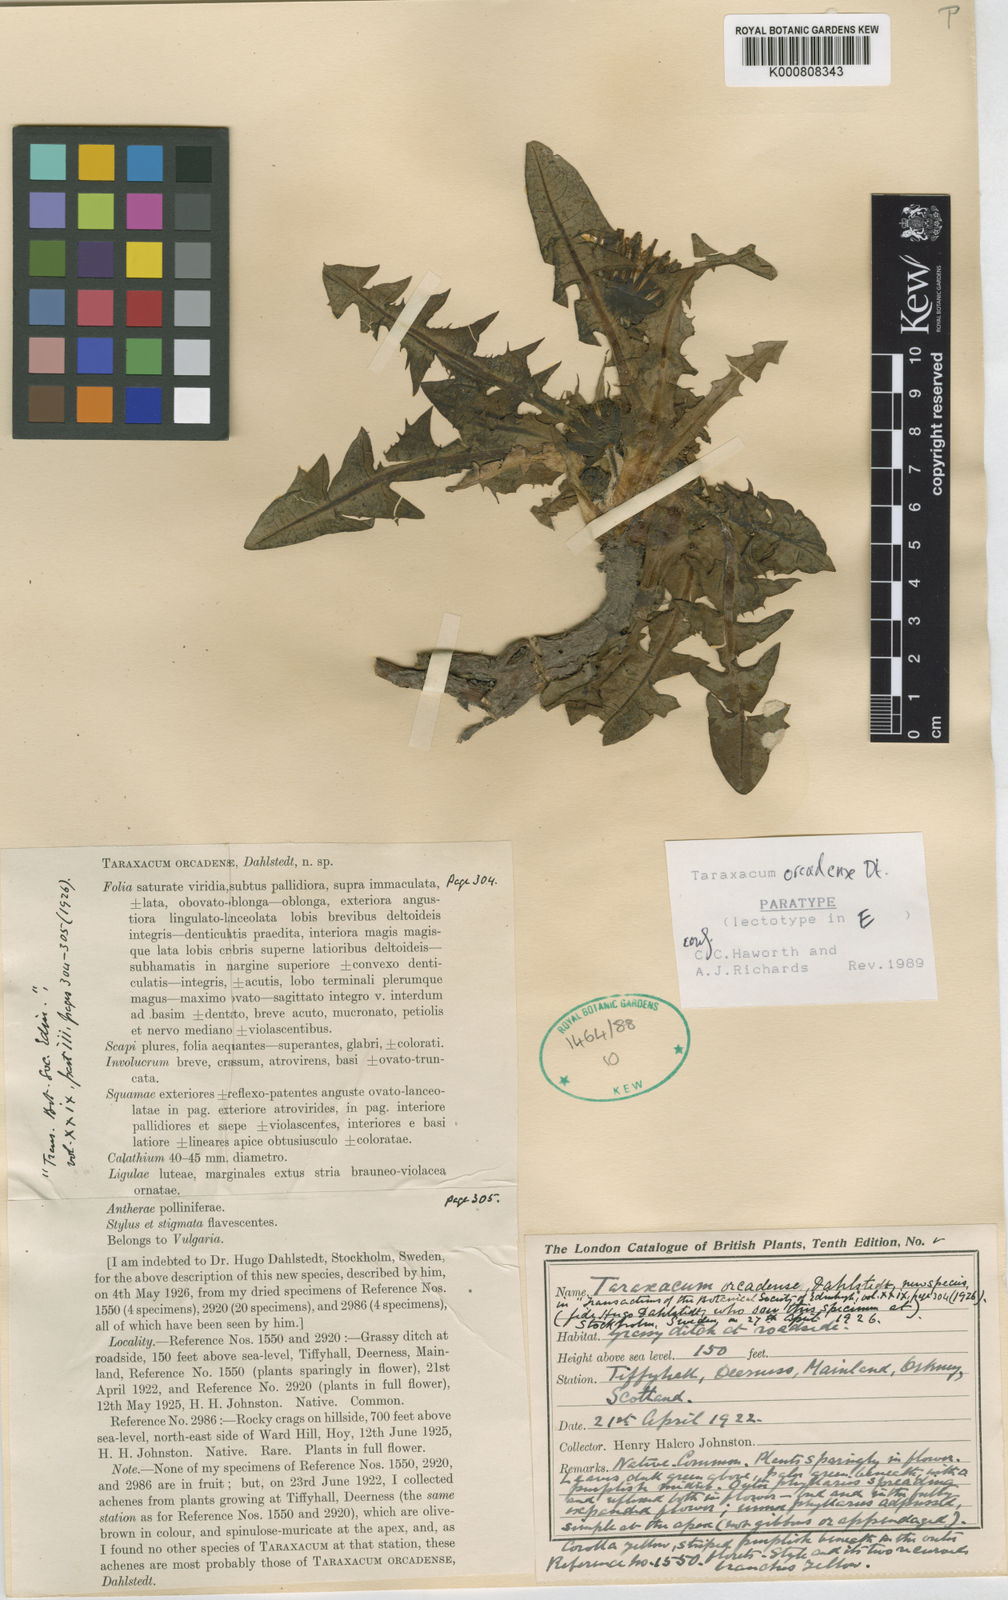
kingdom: Plantae
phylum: Tracheophyta
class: Magnoliopsida
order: Asterales
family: Asteraceae
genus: Taraxacum
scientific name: Taraxacum orcadense
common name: Large-lobed dandelion
